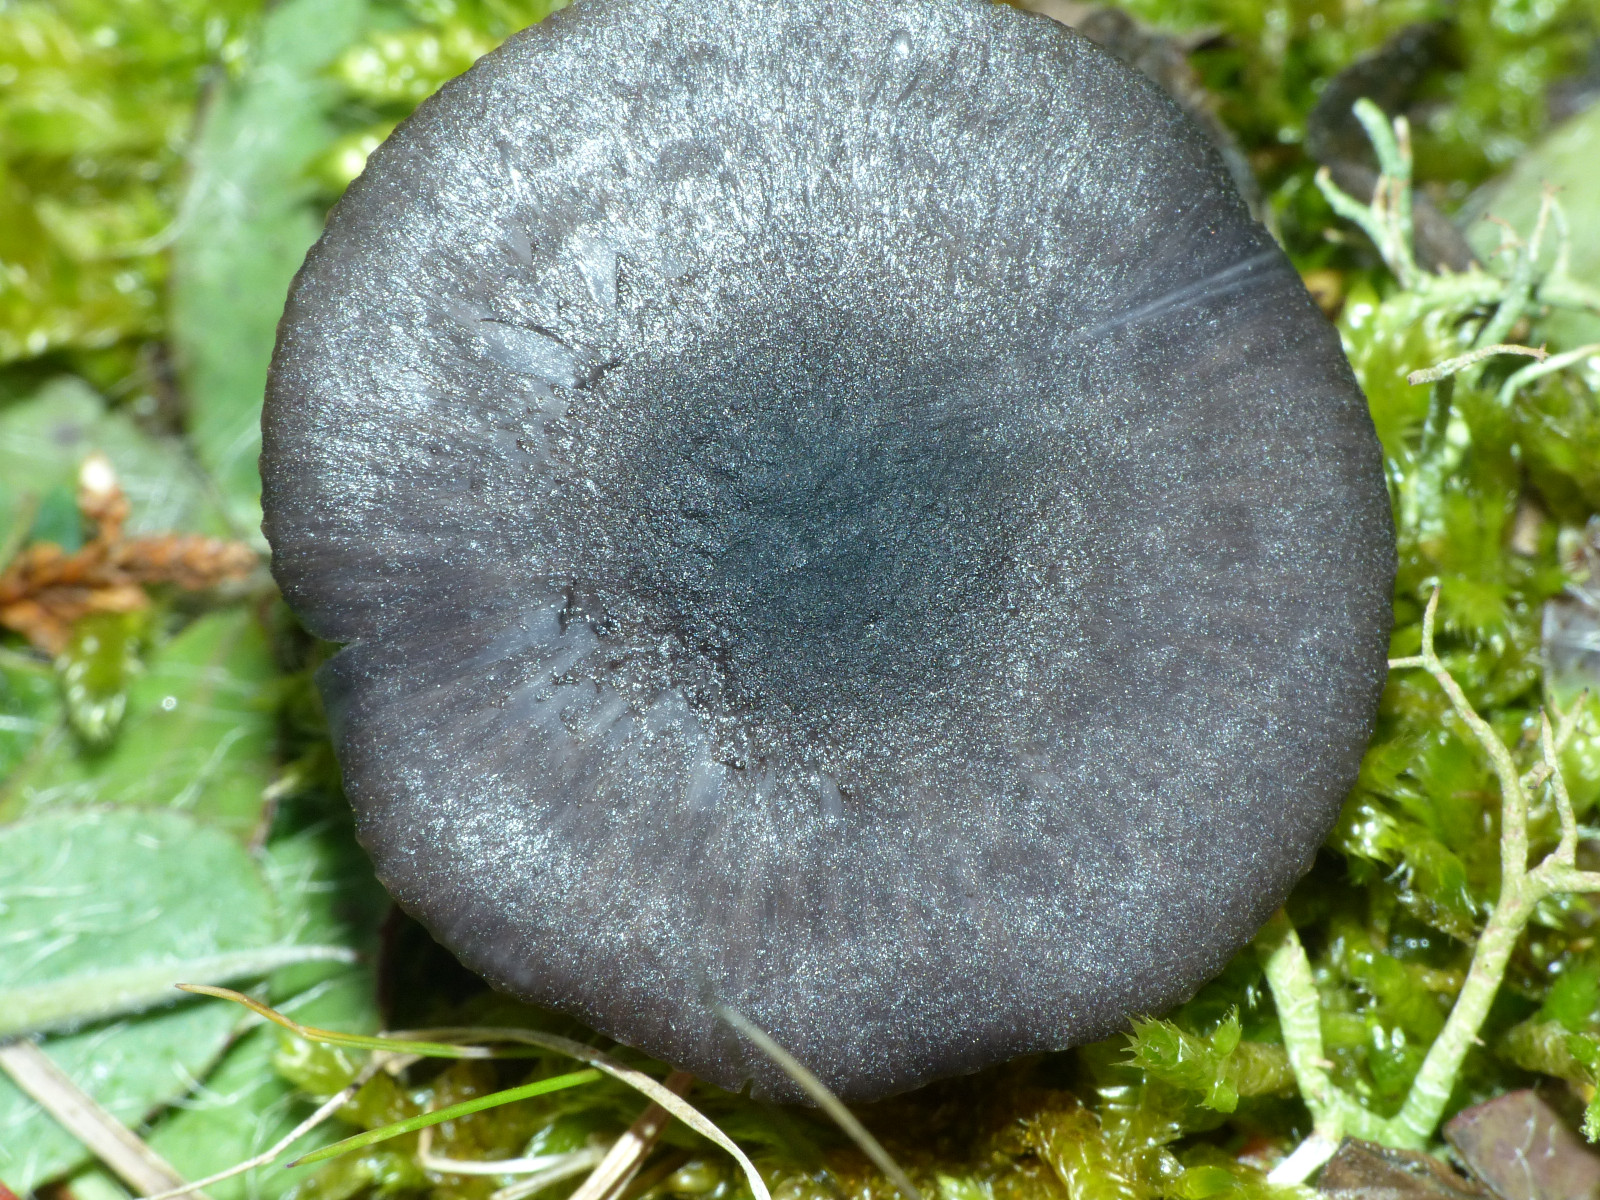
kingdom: Fungi
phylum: Basidiomycota
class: Agaricomycetes
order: Agaricales
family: Entolomataceae
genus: Entoloma
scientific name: Entoloma chalybeum
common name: blåbladet rødblad
